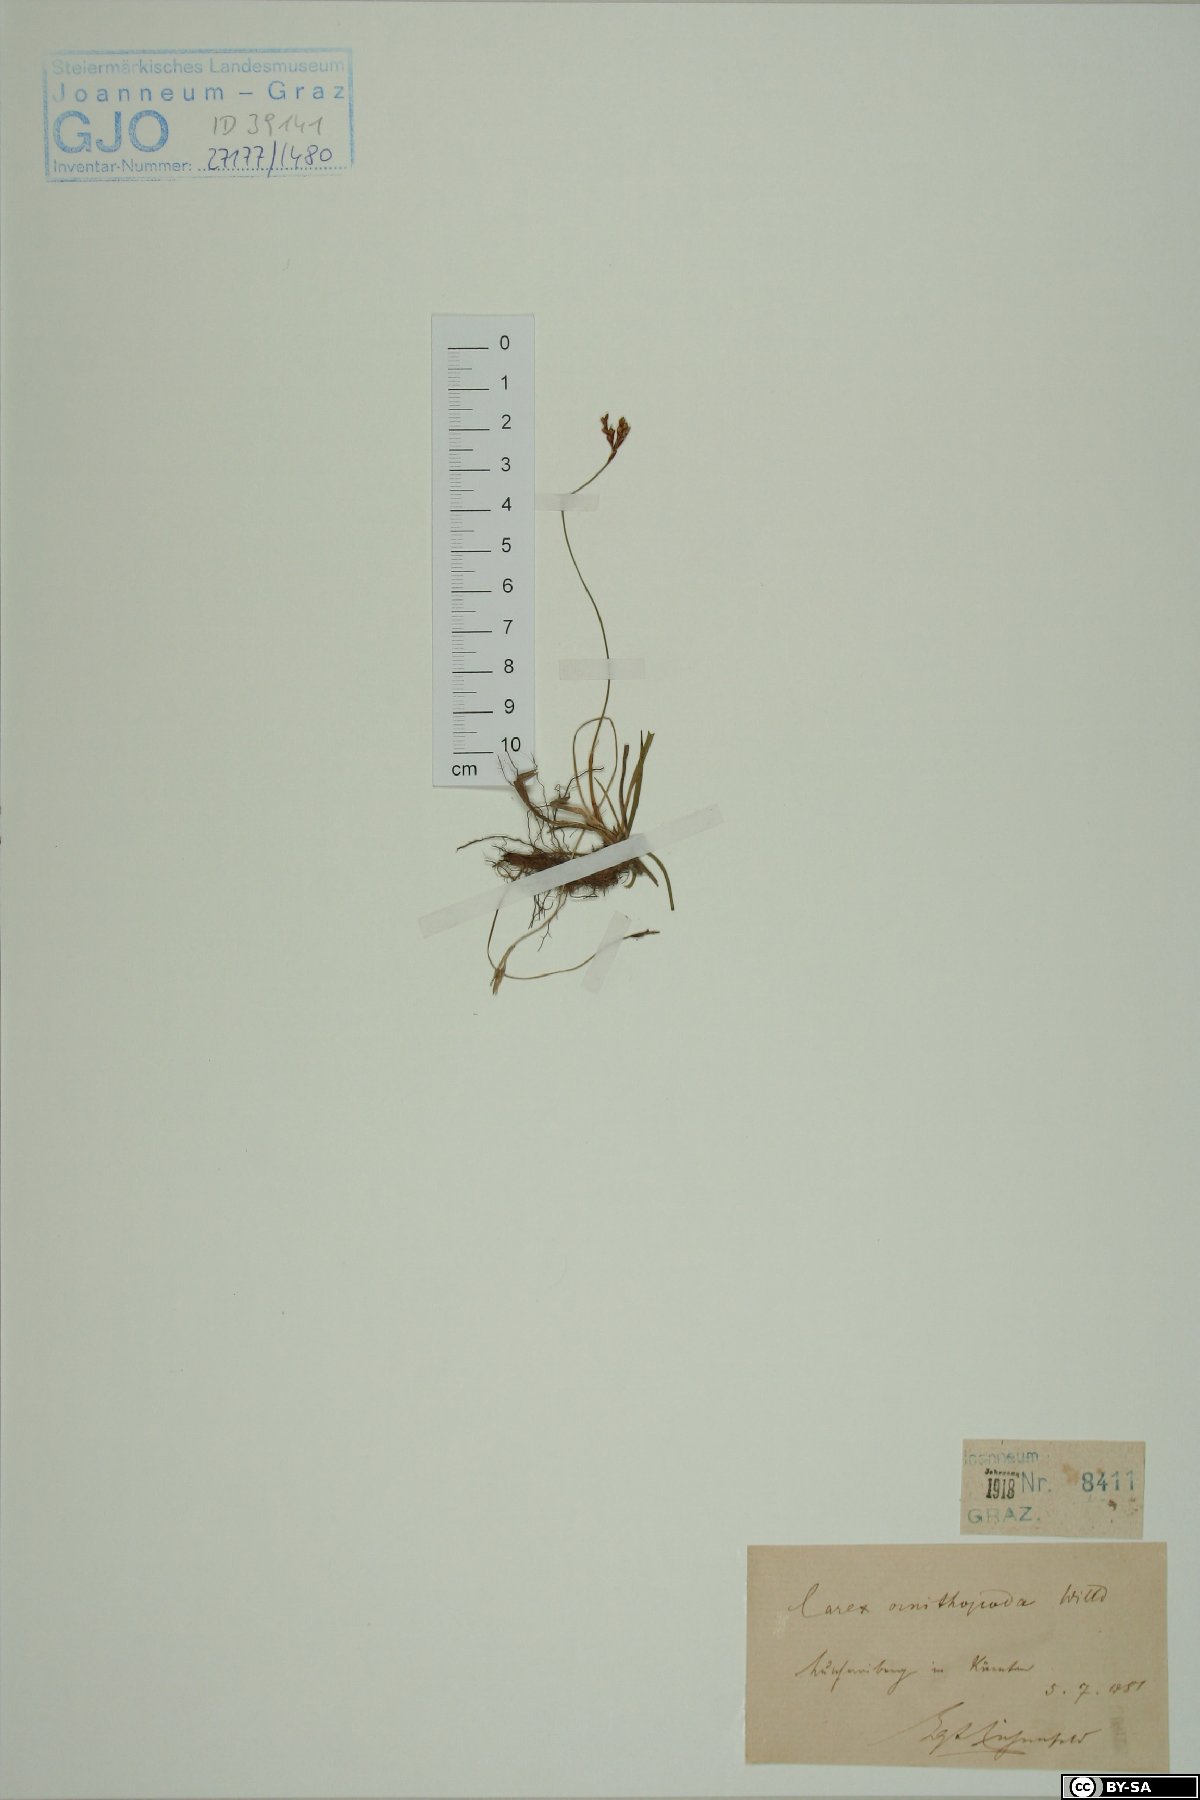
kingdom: Plantae
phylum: Tracheophyta
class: Liliopsida
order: Poales
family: Cyperaceae
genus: Carex
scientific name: Carex ornithopoda
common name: Bird's-foot sedge
